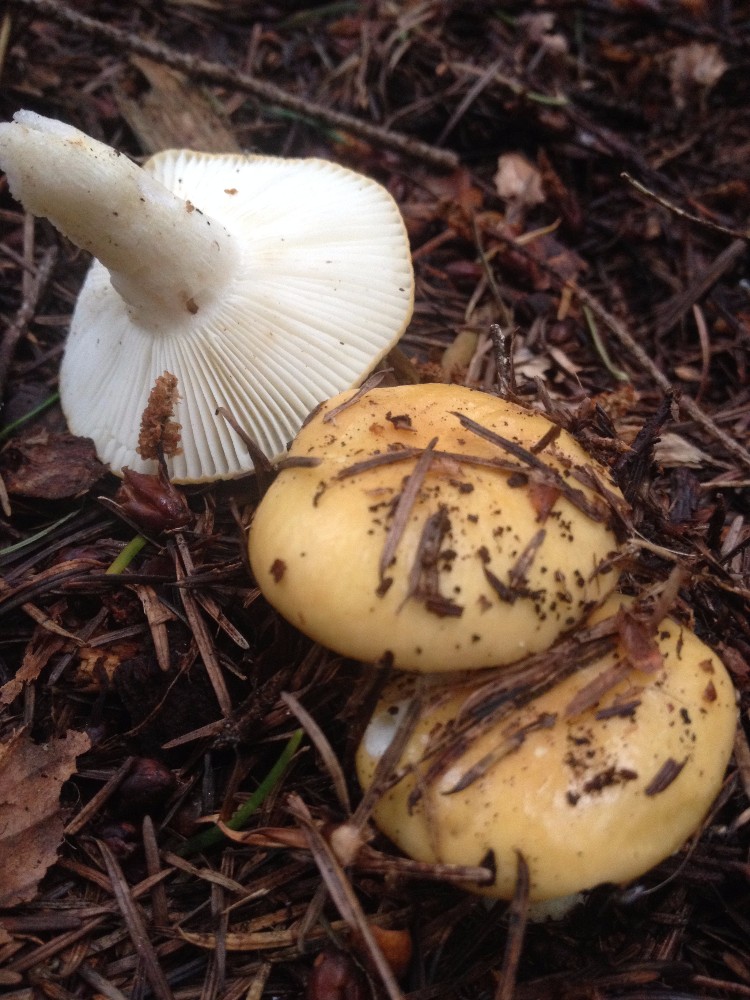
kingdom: Fungi
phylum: Basidiomycota
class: Agaricomycetes
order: Russulales
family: Russulaceae
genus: Russula
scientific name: Russula ochroleuca
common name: okkergul skørhat
